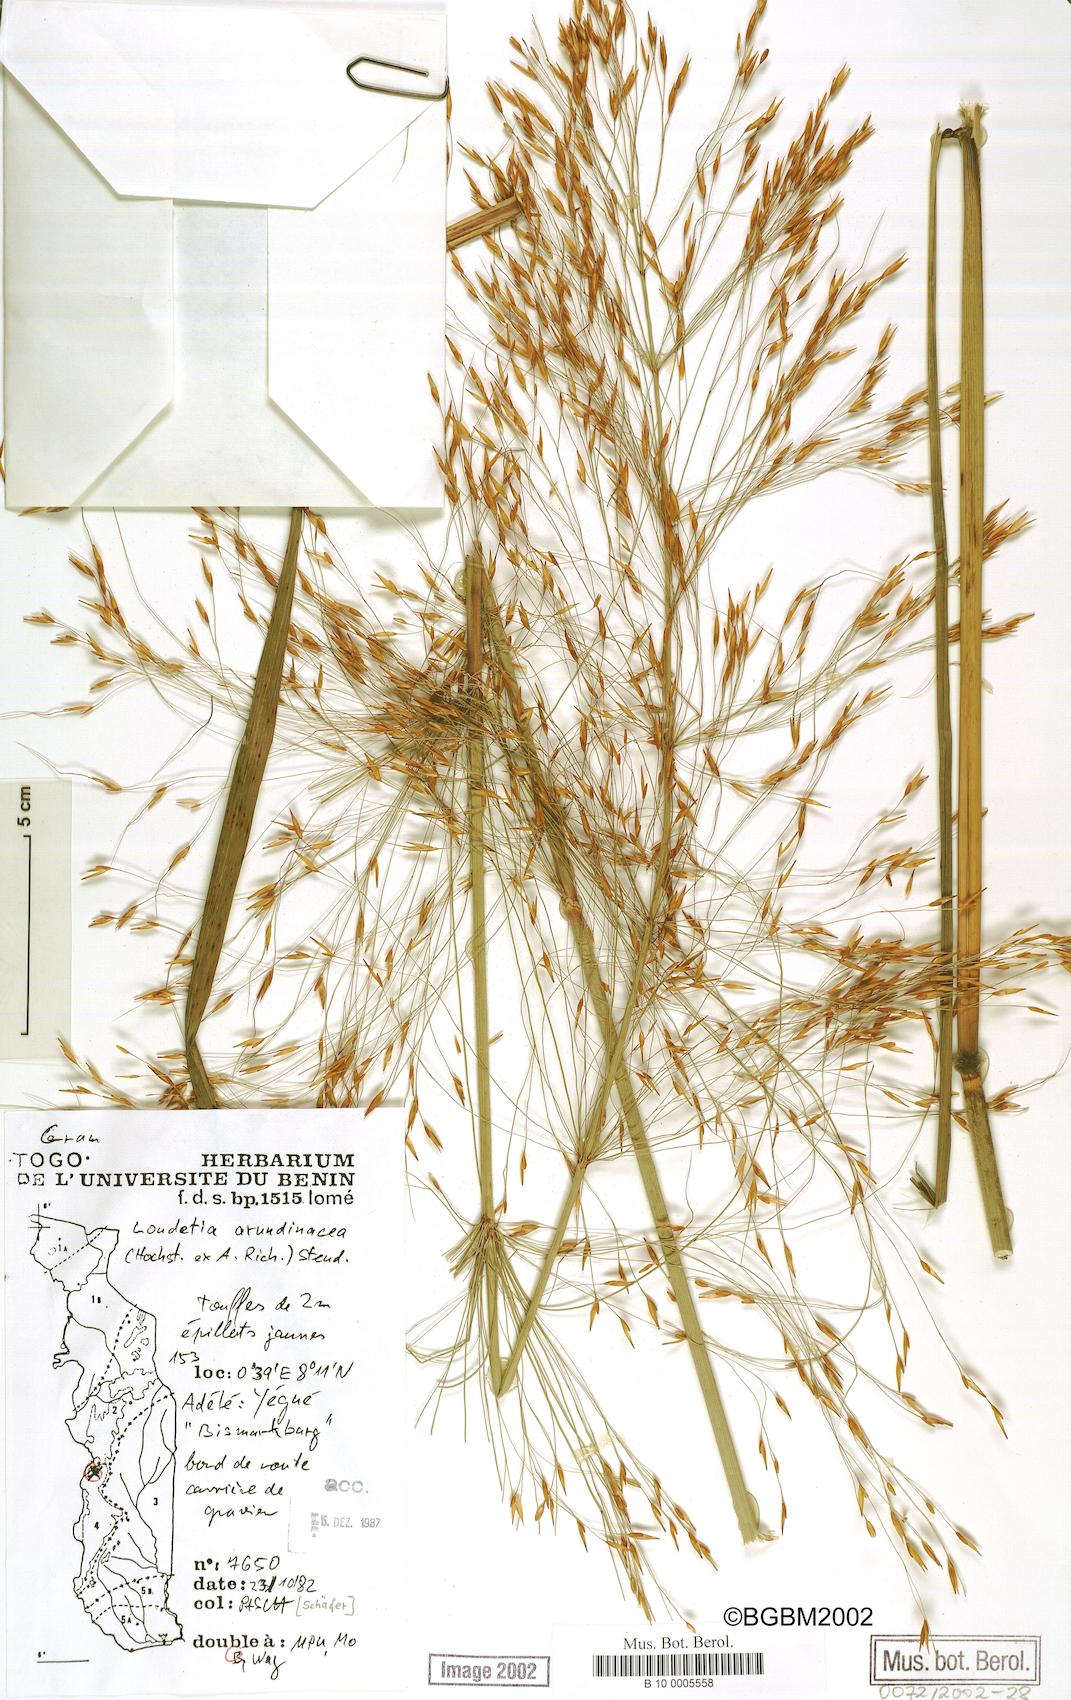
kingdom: Plantae
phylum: Tracheophyta
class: Liliopsida
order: Poales
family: Poaceae
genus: Loudetia
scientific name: Loudetia arundinacea
